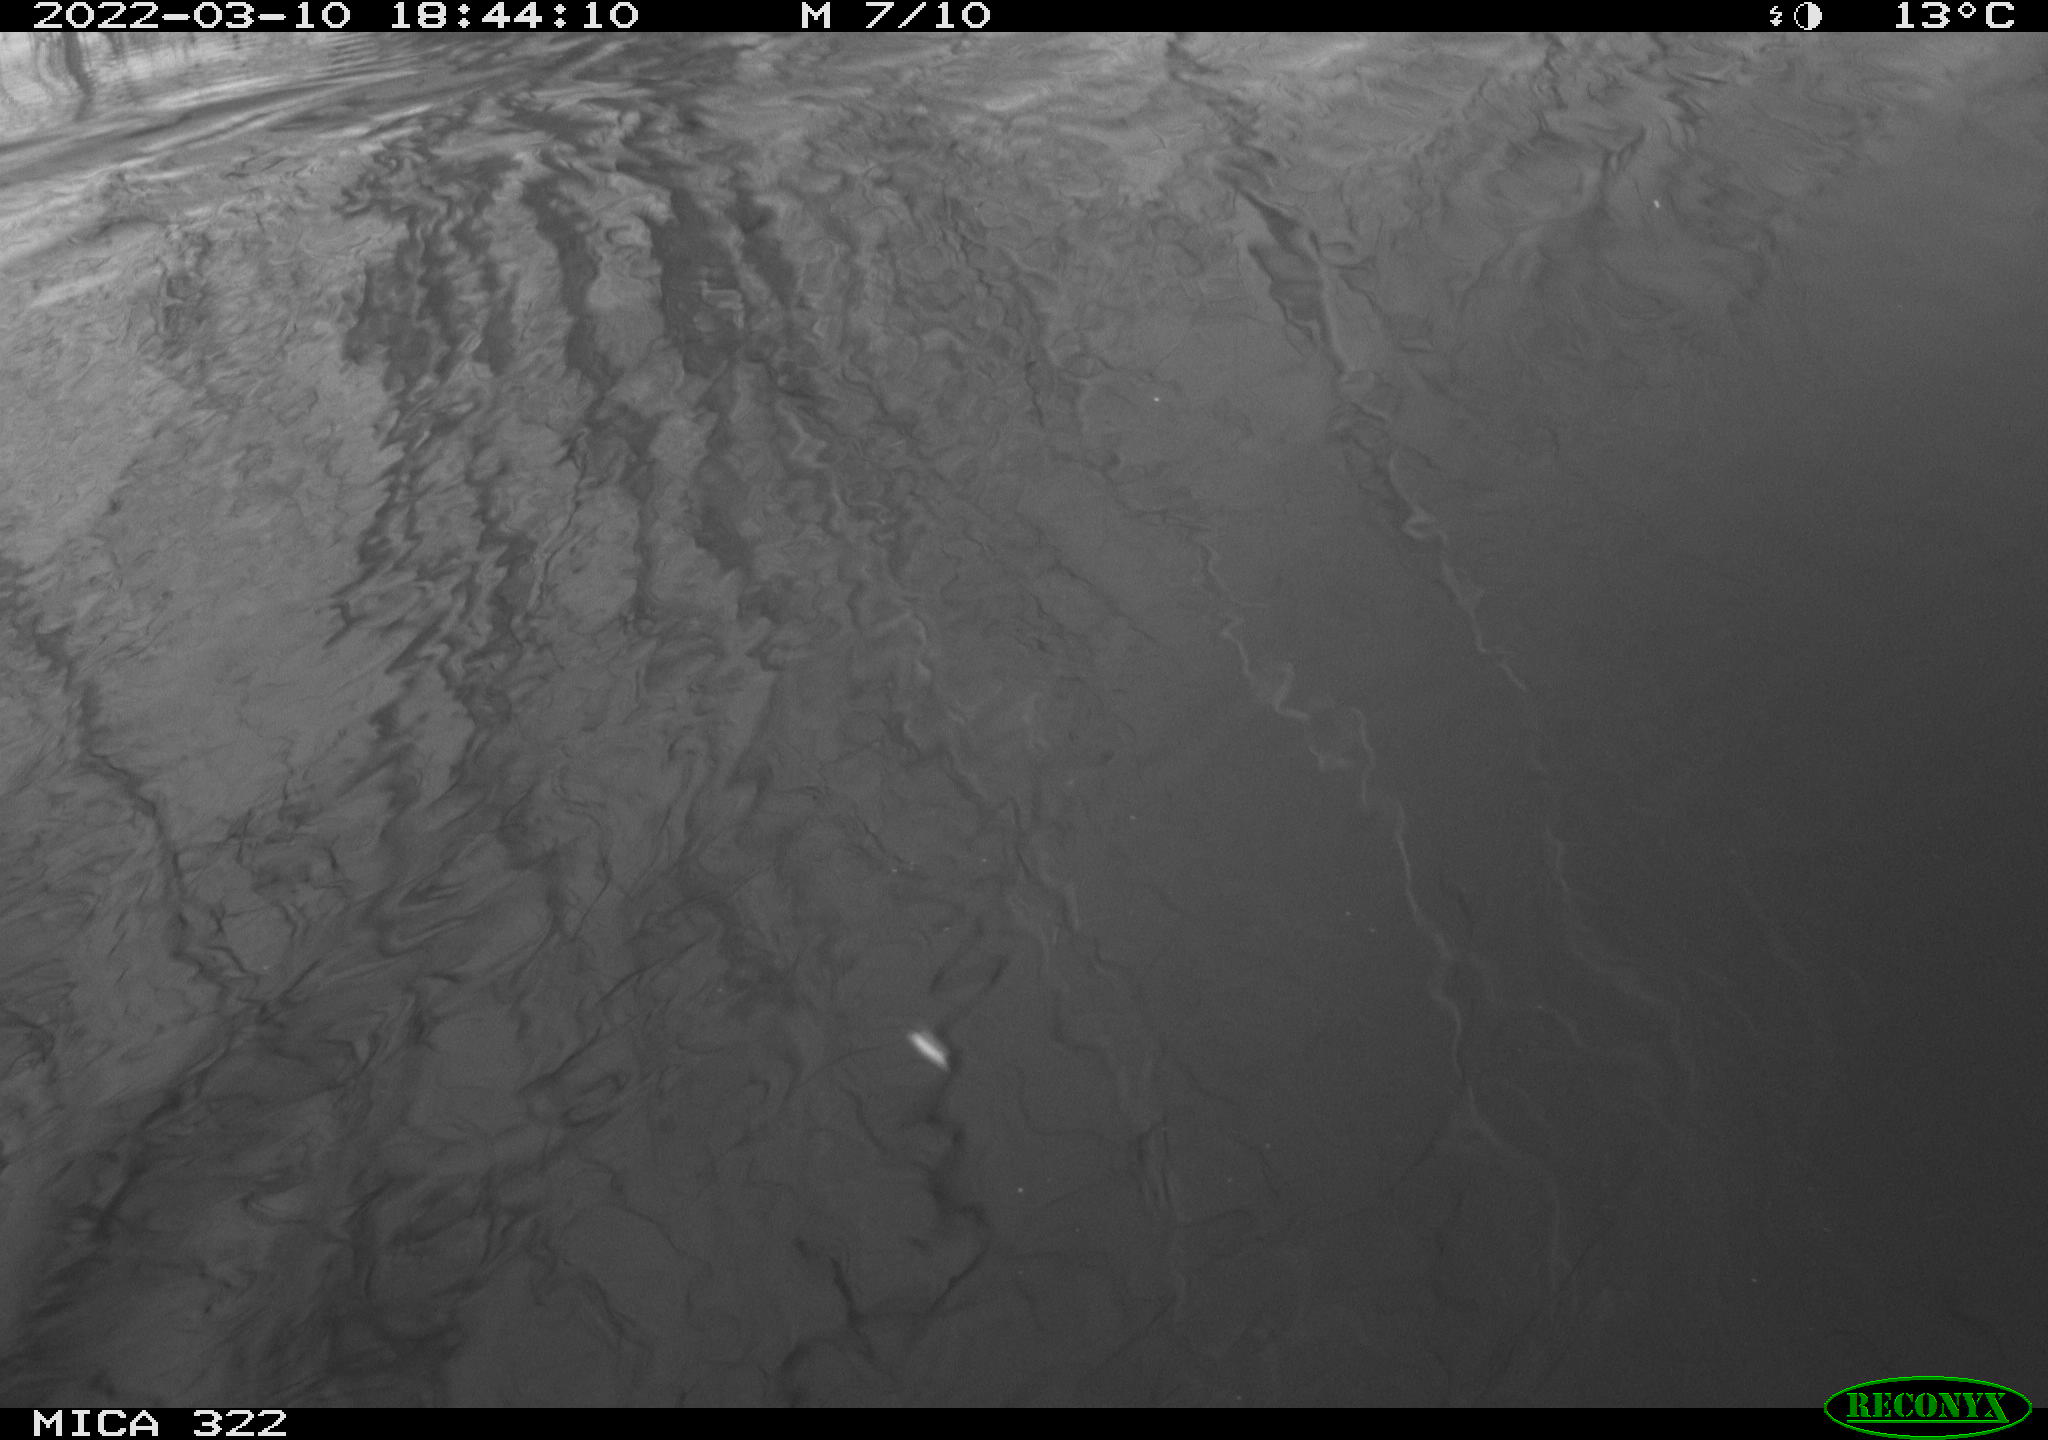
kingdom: Animalia
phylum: Chordata
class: Aves
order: Anseriformes
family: Anatidae
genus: Mareca
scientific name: Mareca strepera
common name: Gadwall
